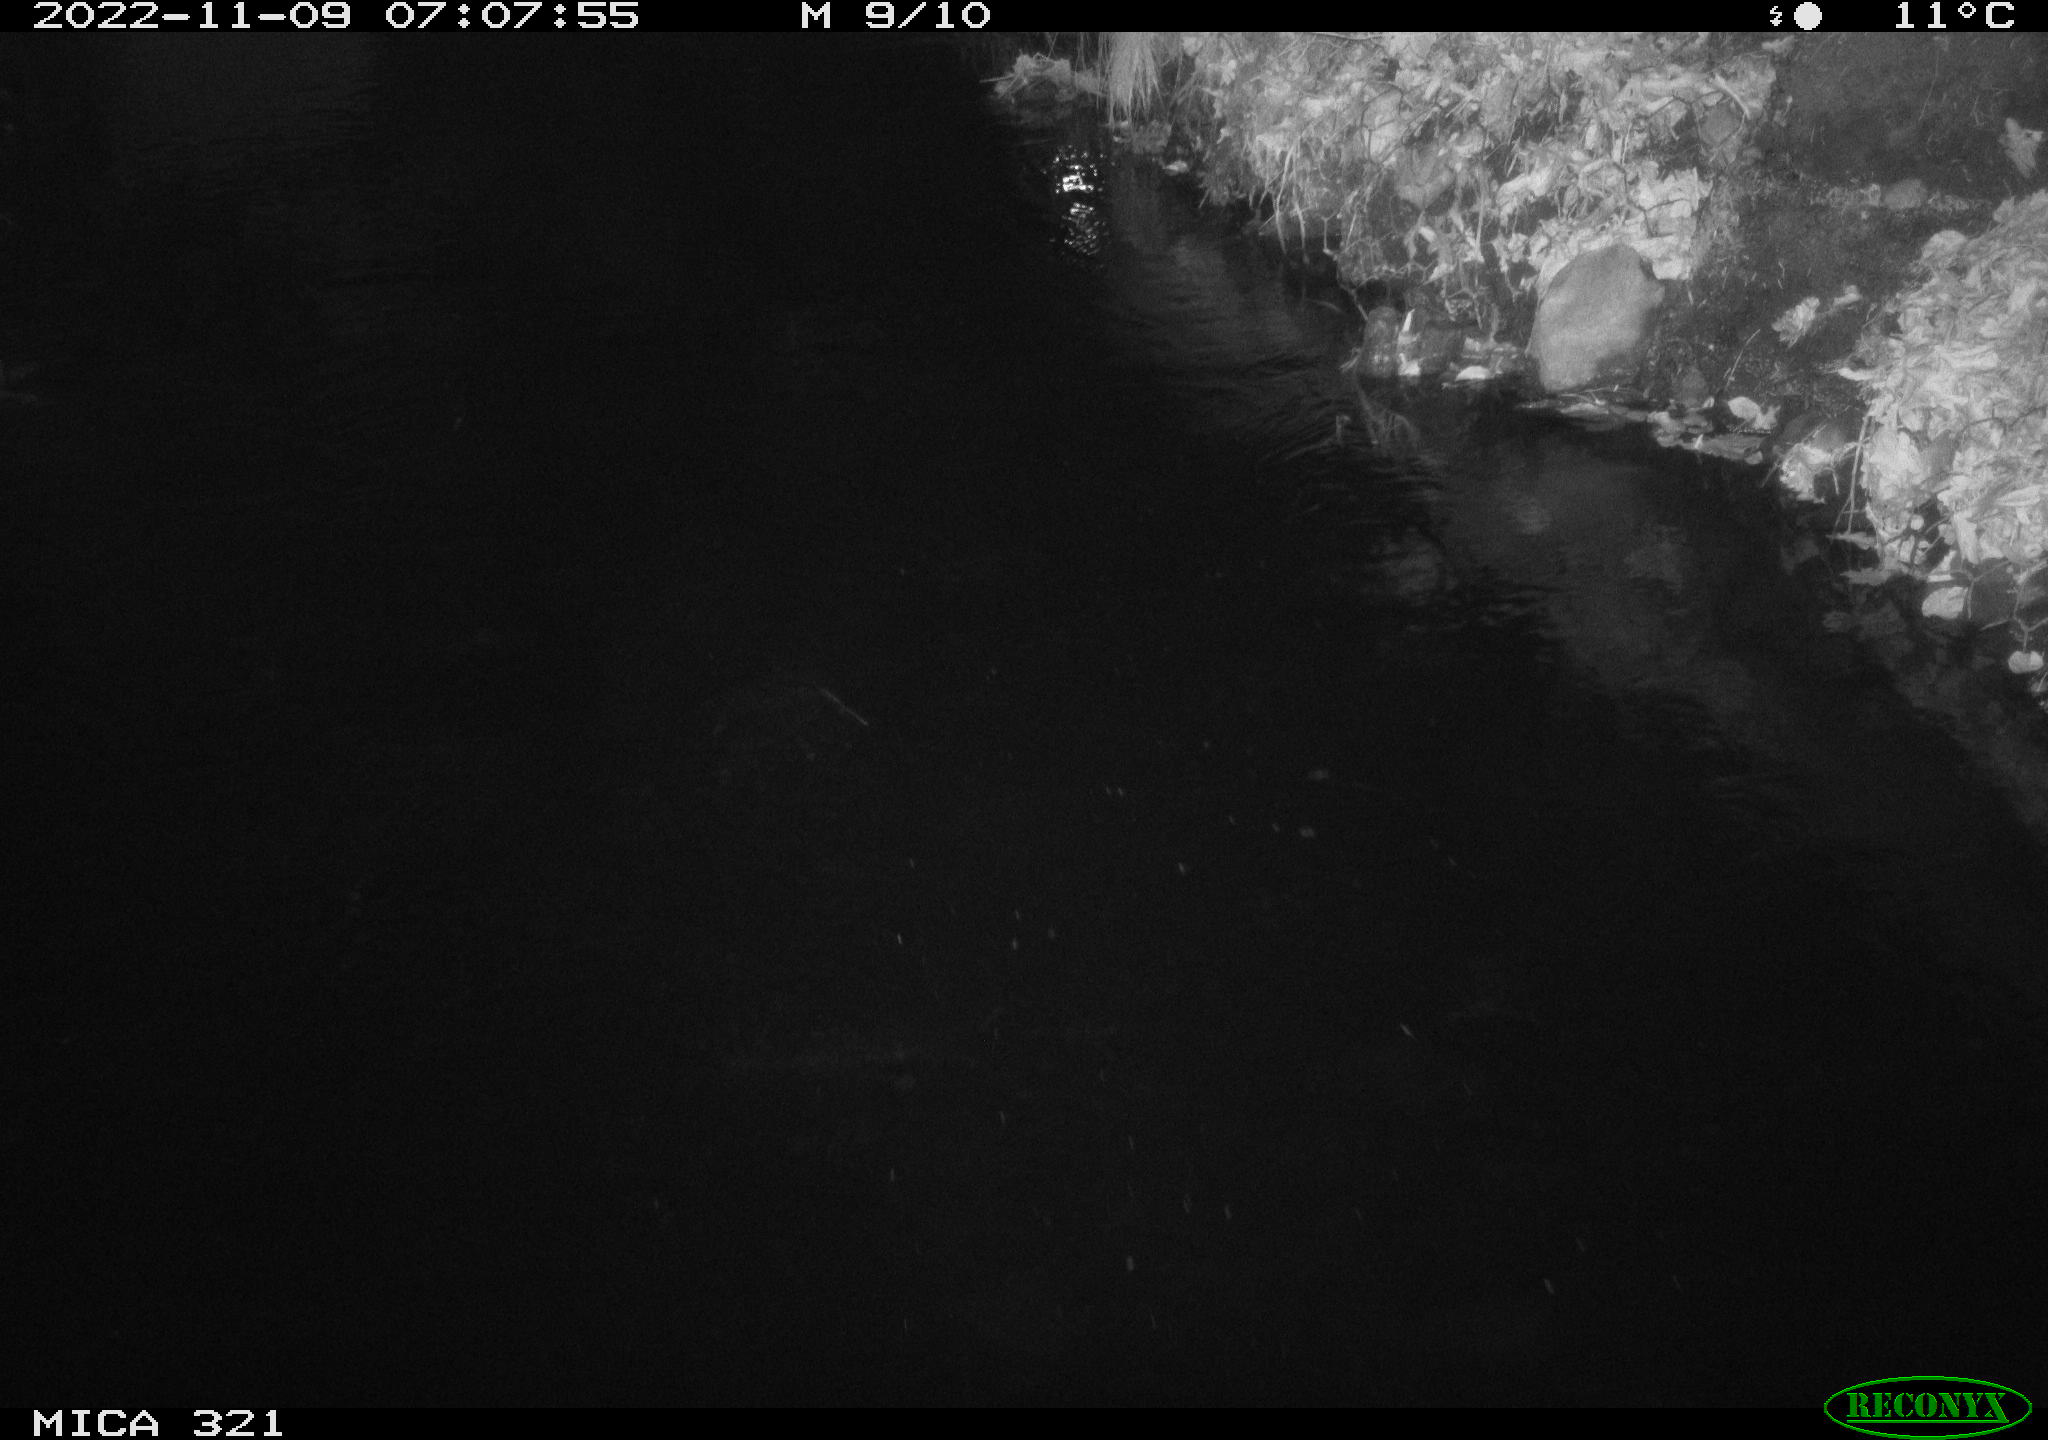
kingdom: Animalia
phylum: Chordata
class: Aves
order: Anseriformes
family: Anatidae
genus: Anas
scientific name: Anas
